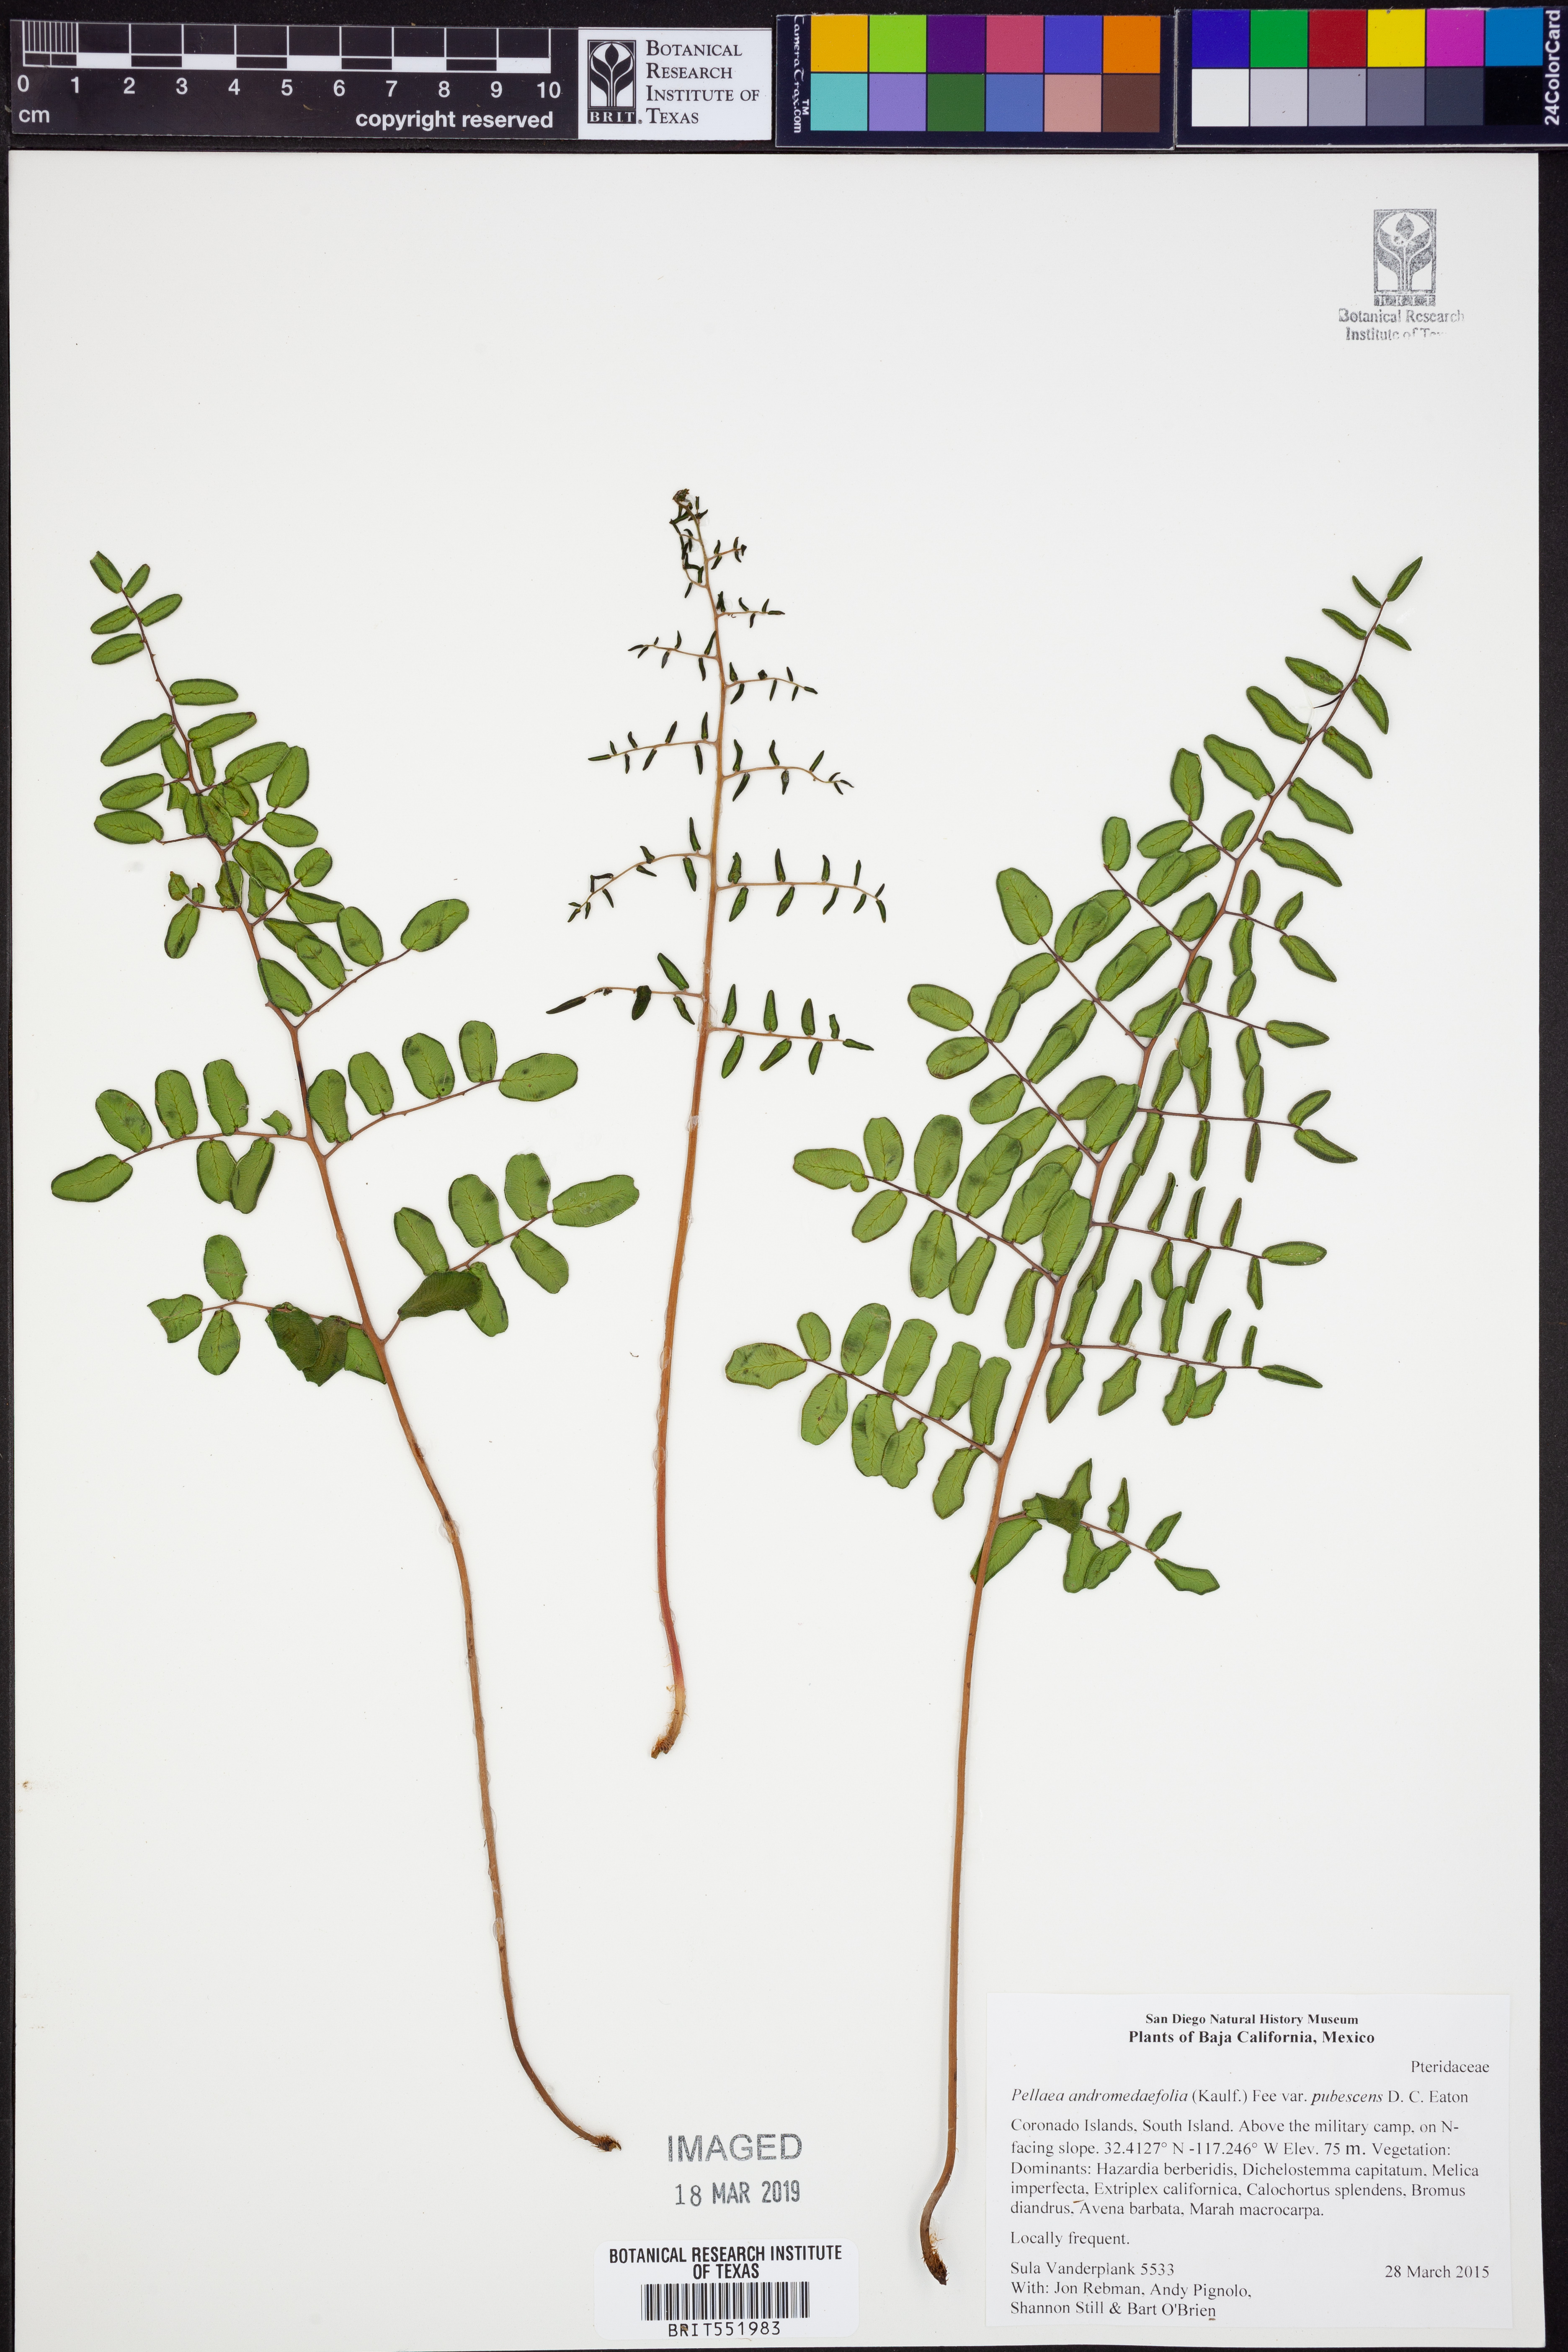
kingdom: Plantae
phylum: Tracheophyta
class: Polypodiopsida
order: Polypodiales
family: Pteridaceae
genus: Pellaea
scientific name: Pellaea andromedifolia
